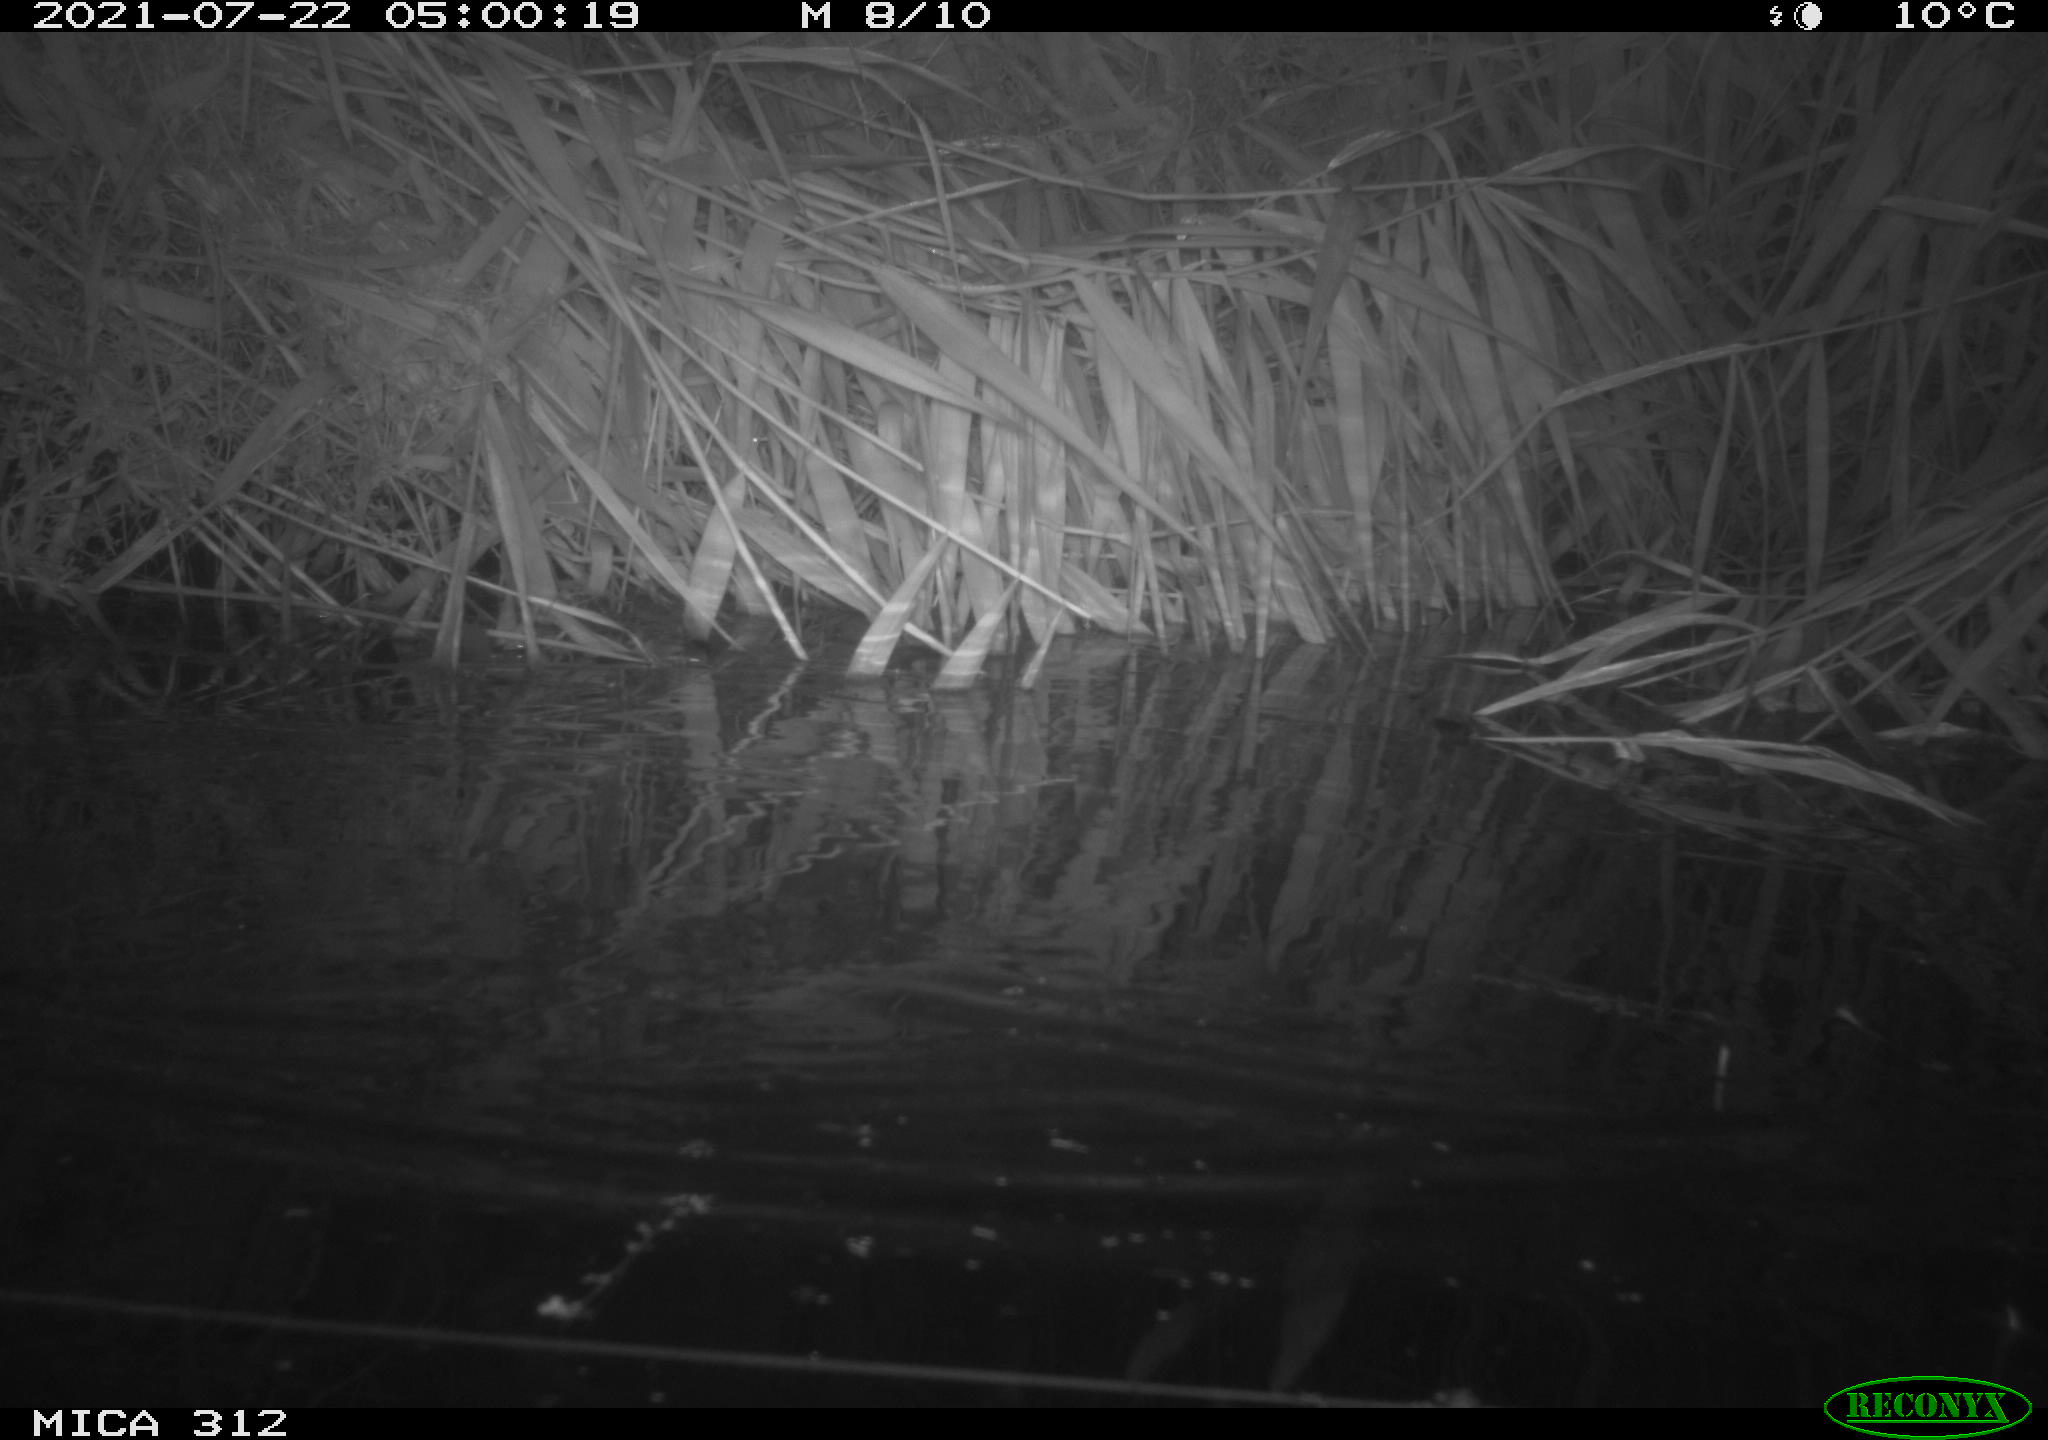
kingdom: Animalia
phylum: Chordata
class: Mammalia
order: Rodentia
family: Muridae
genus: Rattus
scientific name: Rattus norvegicus
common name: Brown rat
